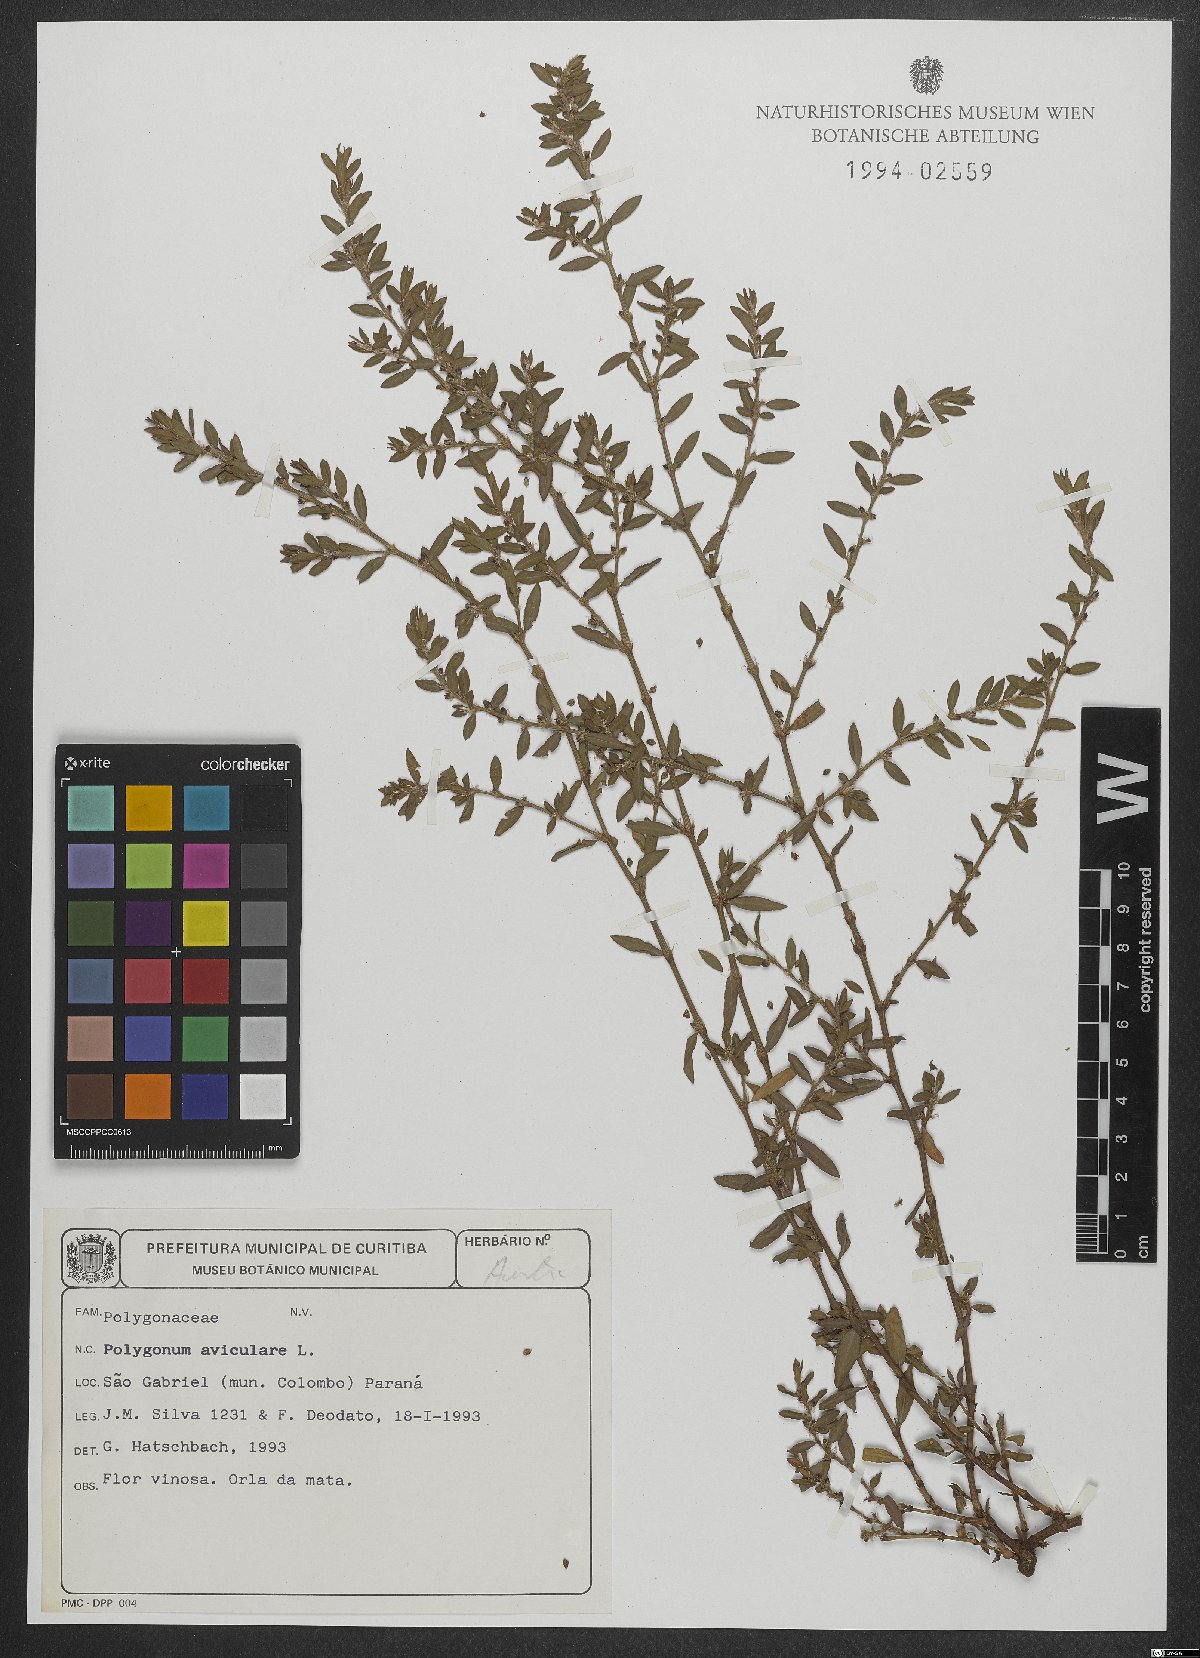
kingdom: Plantae
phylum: Tracheophyta
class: Magnoliopsida
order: Caryophyllales
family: Polygonaceae
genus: Polygonum
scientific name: Polygonum aviculare
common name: Prostrate knotweed
